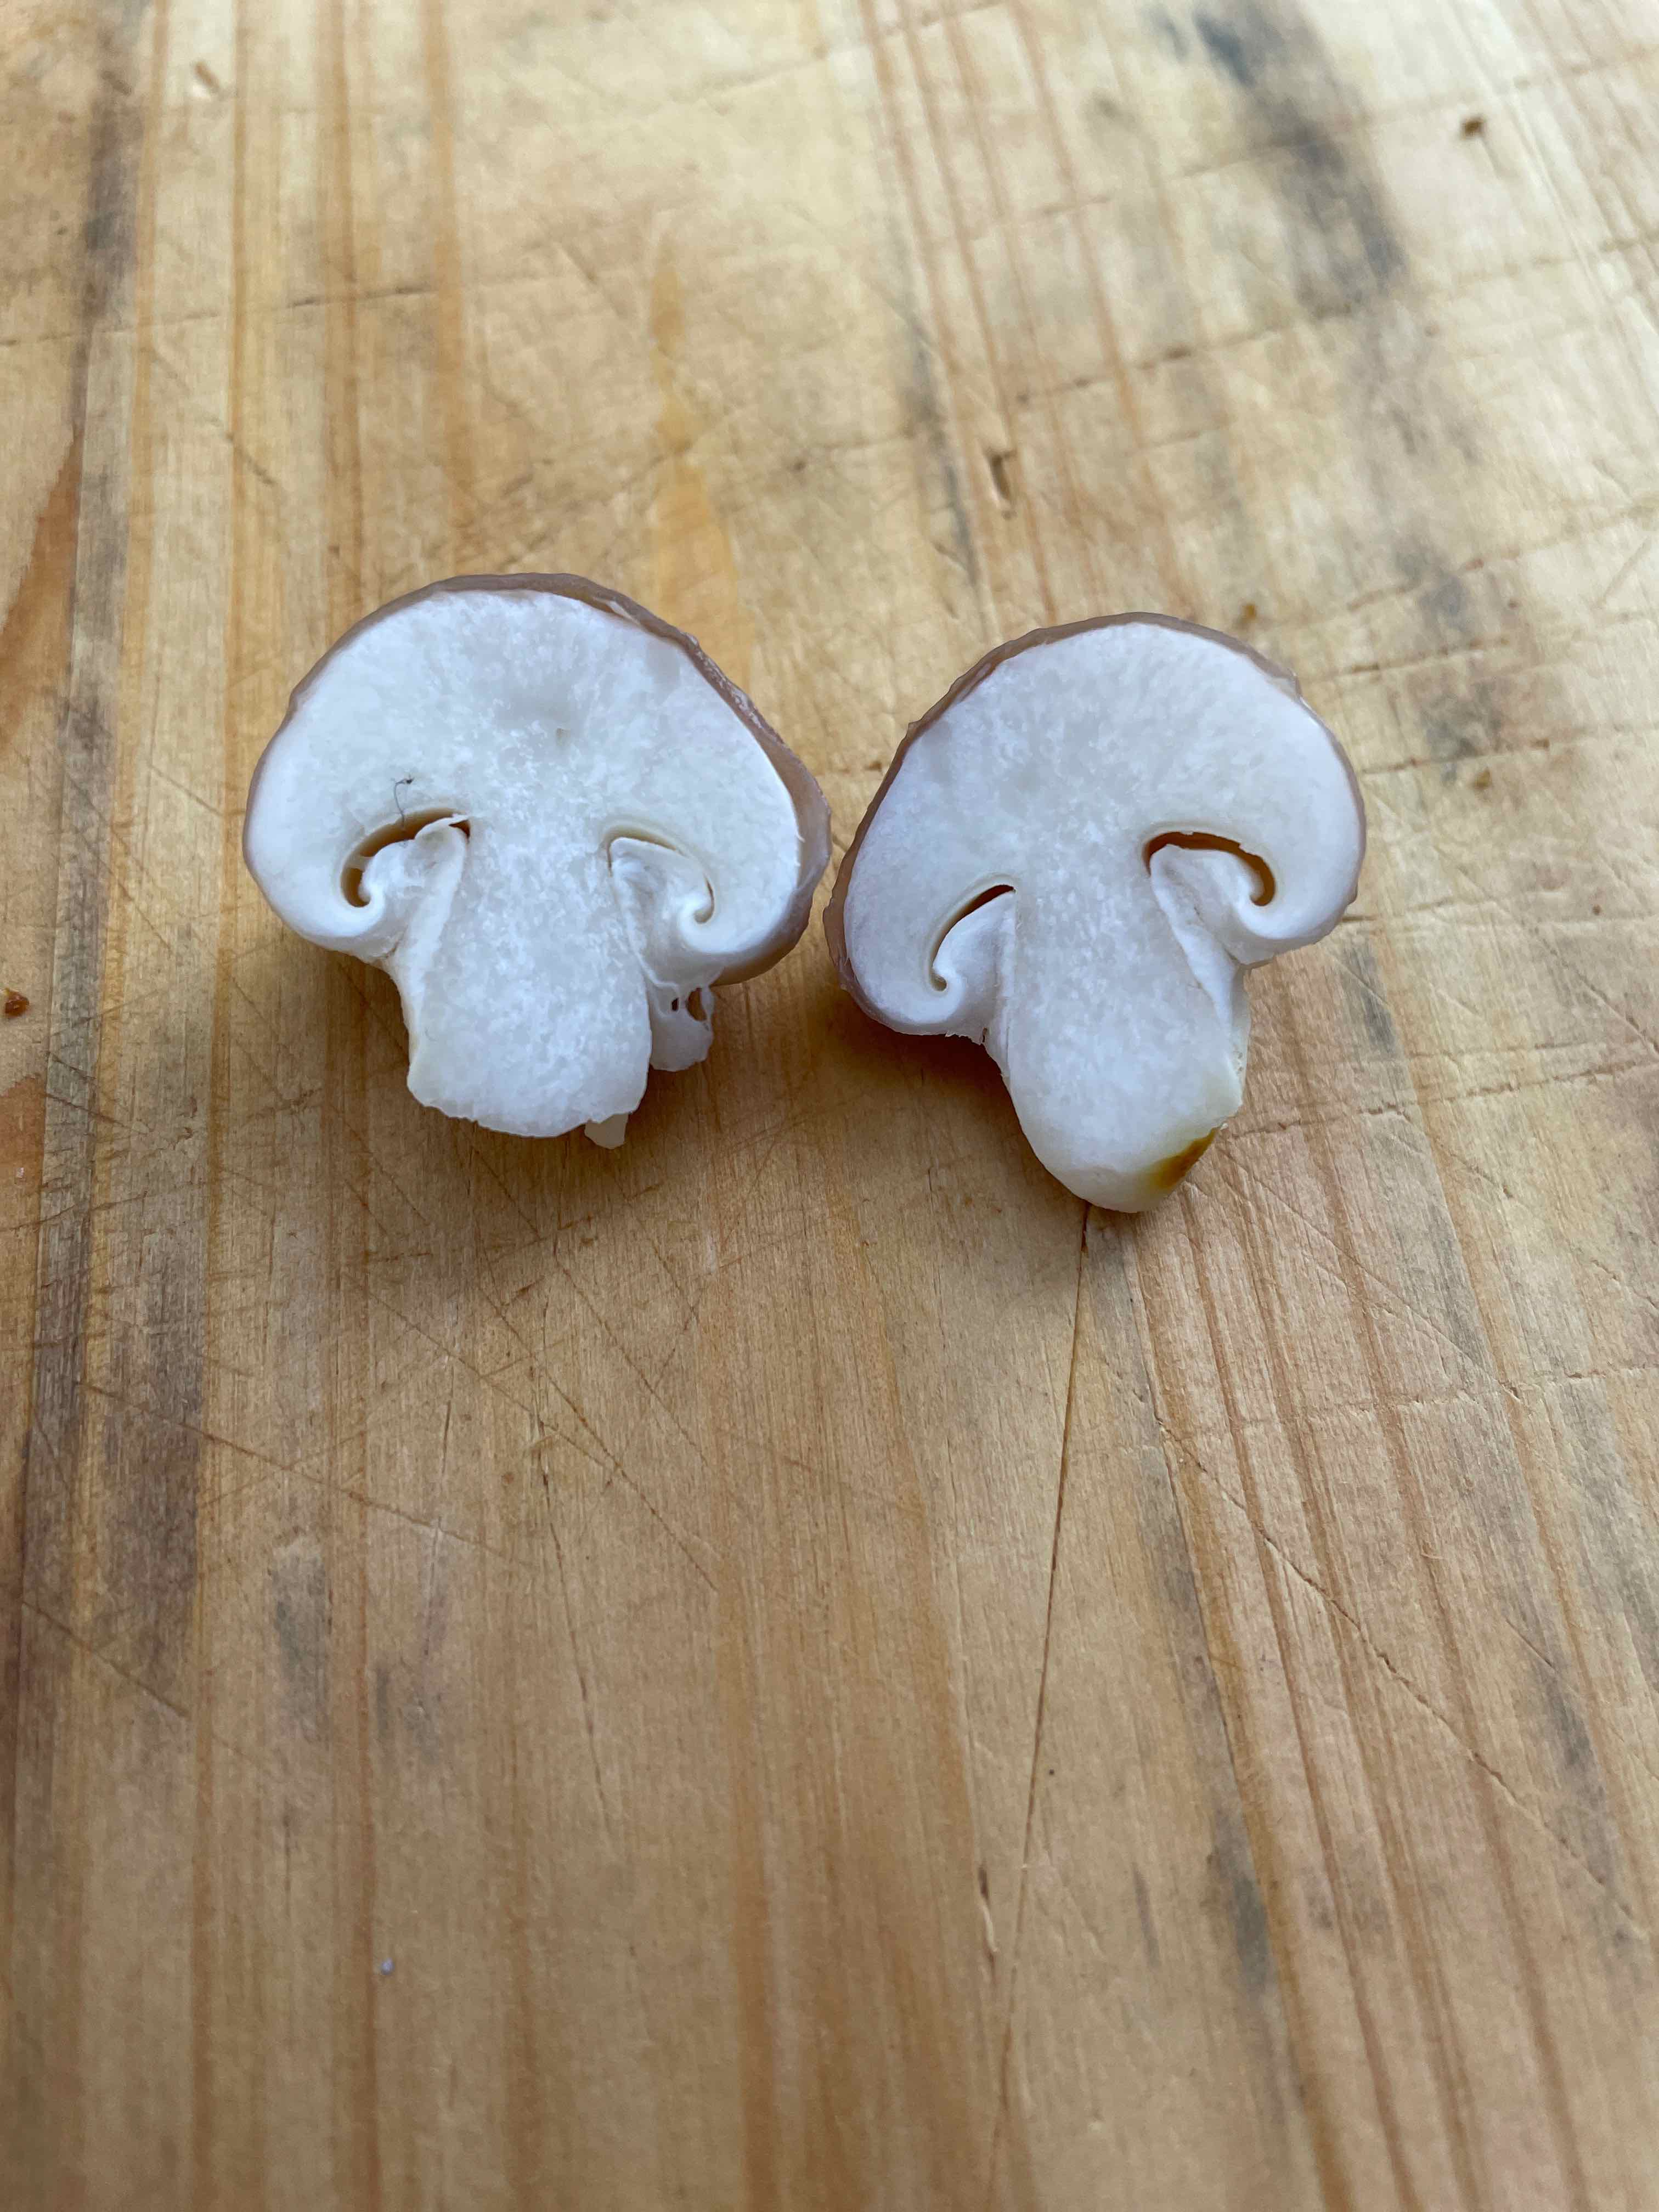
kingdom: Fungi
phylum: Basidiomycota
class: Agaricomycetes
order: Boletales
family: Suillaceae
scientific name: Suillaceae
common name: slimrørhatfamilien
